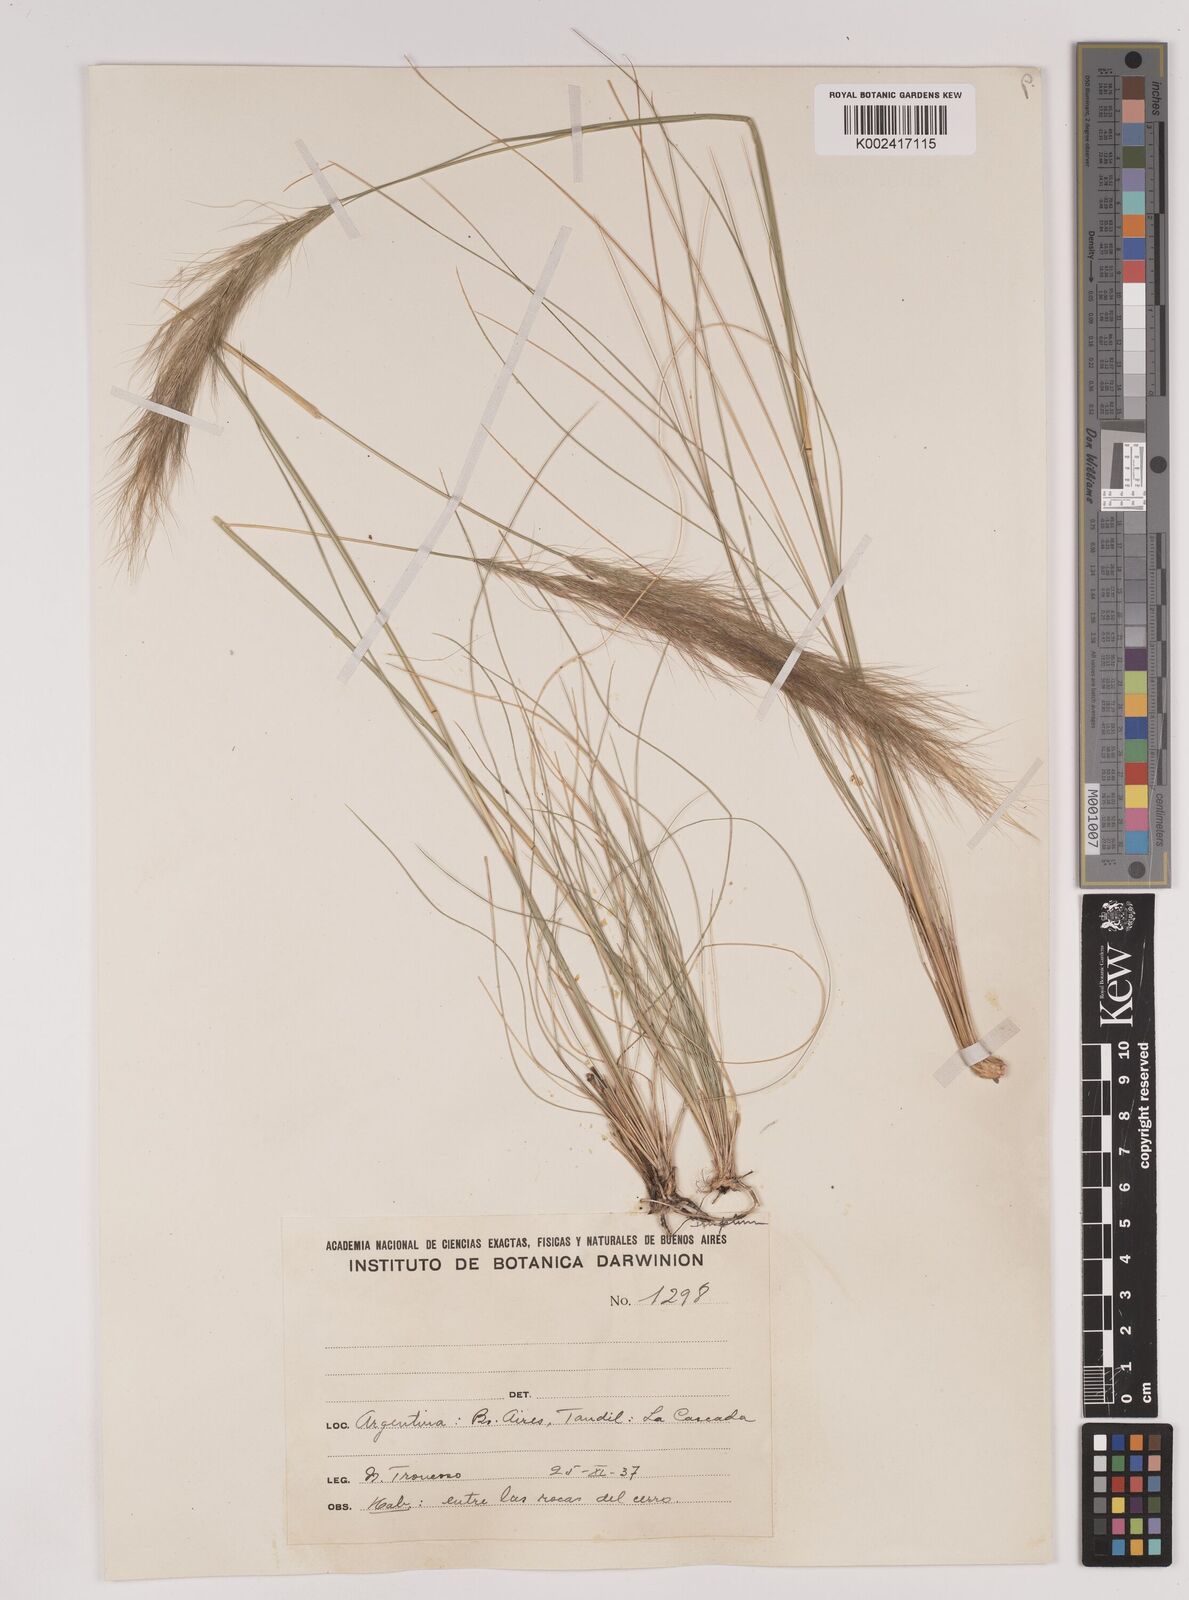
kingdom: Plantae
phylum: Tracheophyta
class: Liliopsida
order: Poales
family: Poaceae
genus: Stipa
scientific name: Stipa
